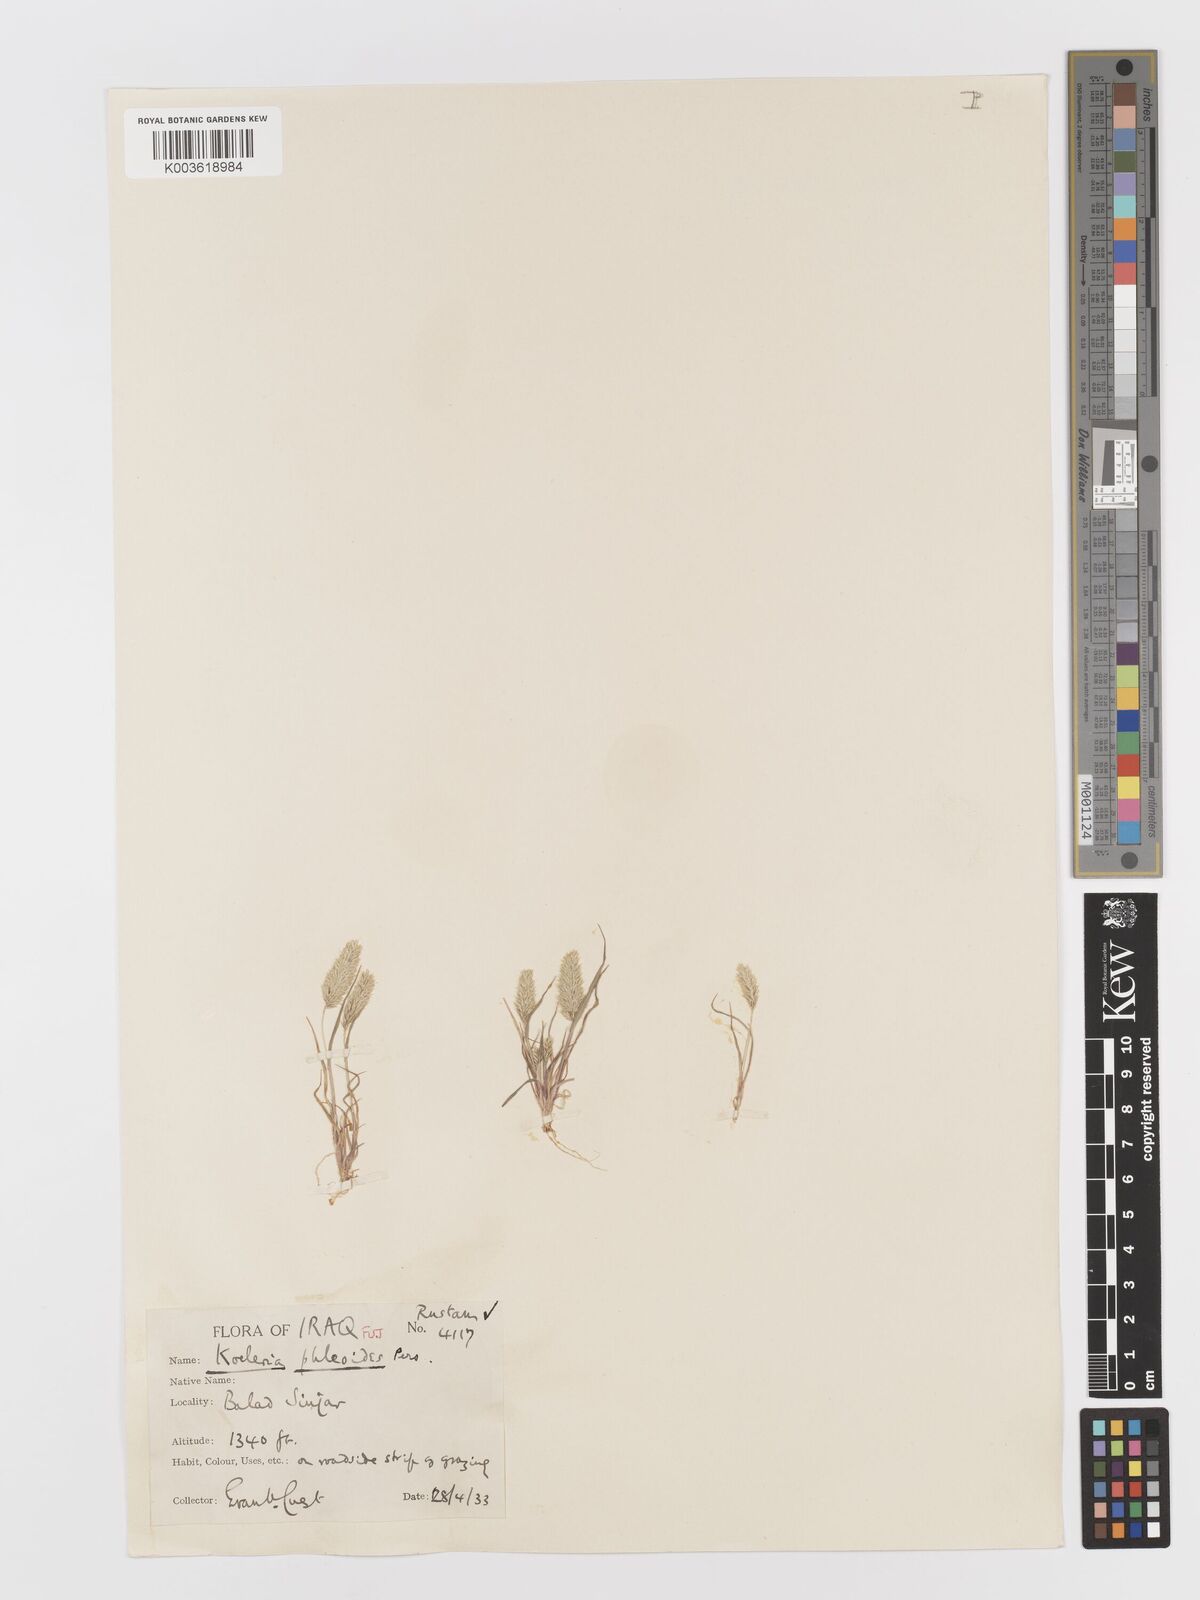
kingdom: Plantae
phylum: Tracheophyta
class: Liliopsida
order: Poales
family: Poaceae
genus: Rostraria
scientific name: Rostraria cristata
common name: Mediterranean hair-grass
